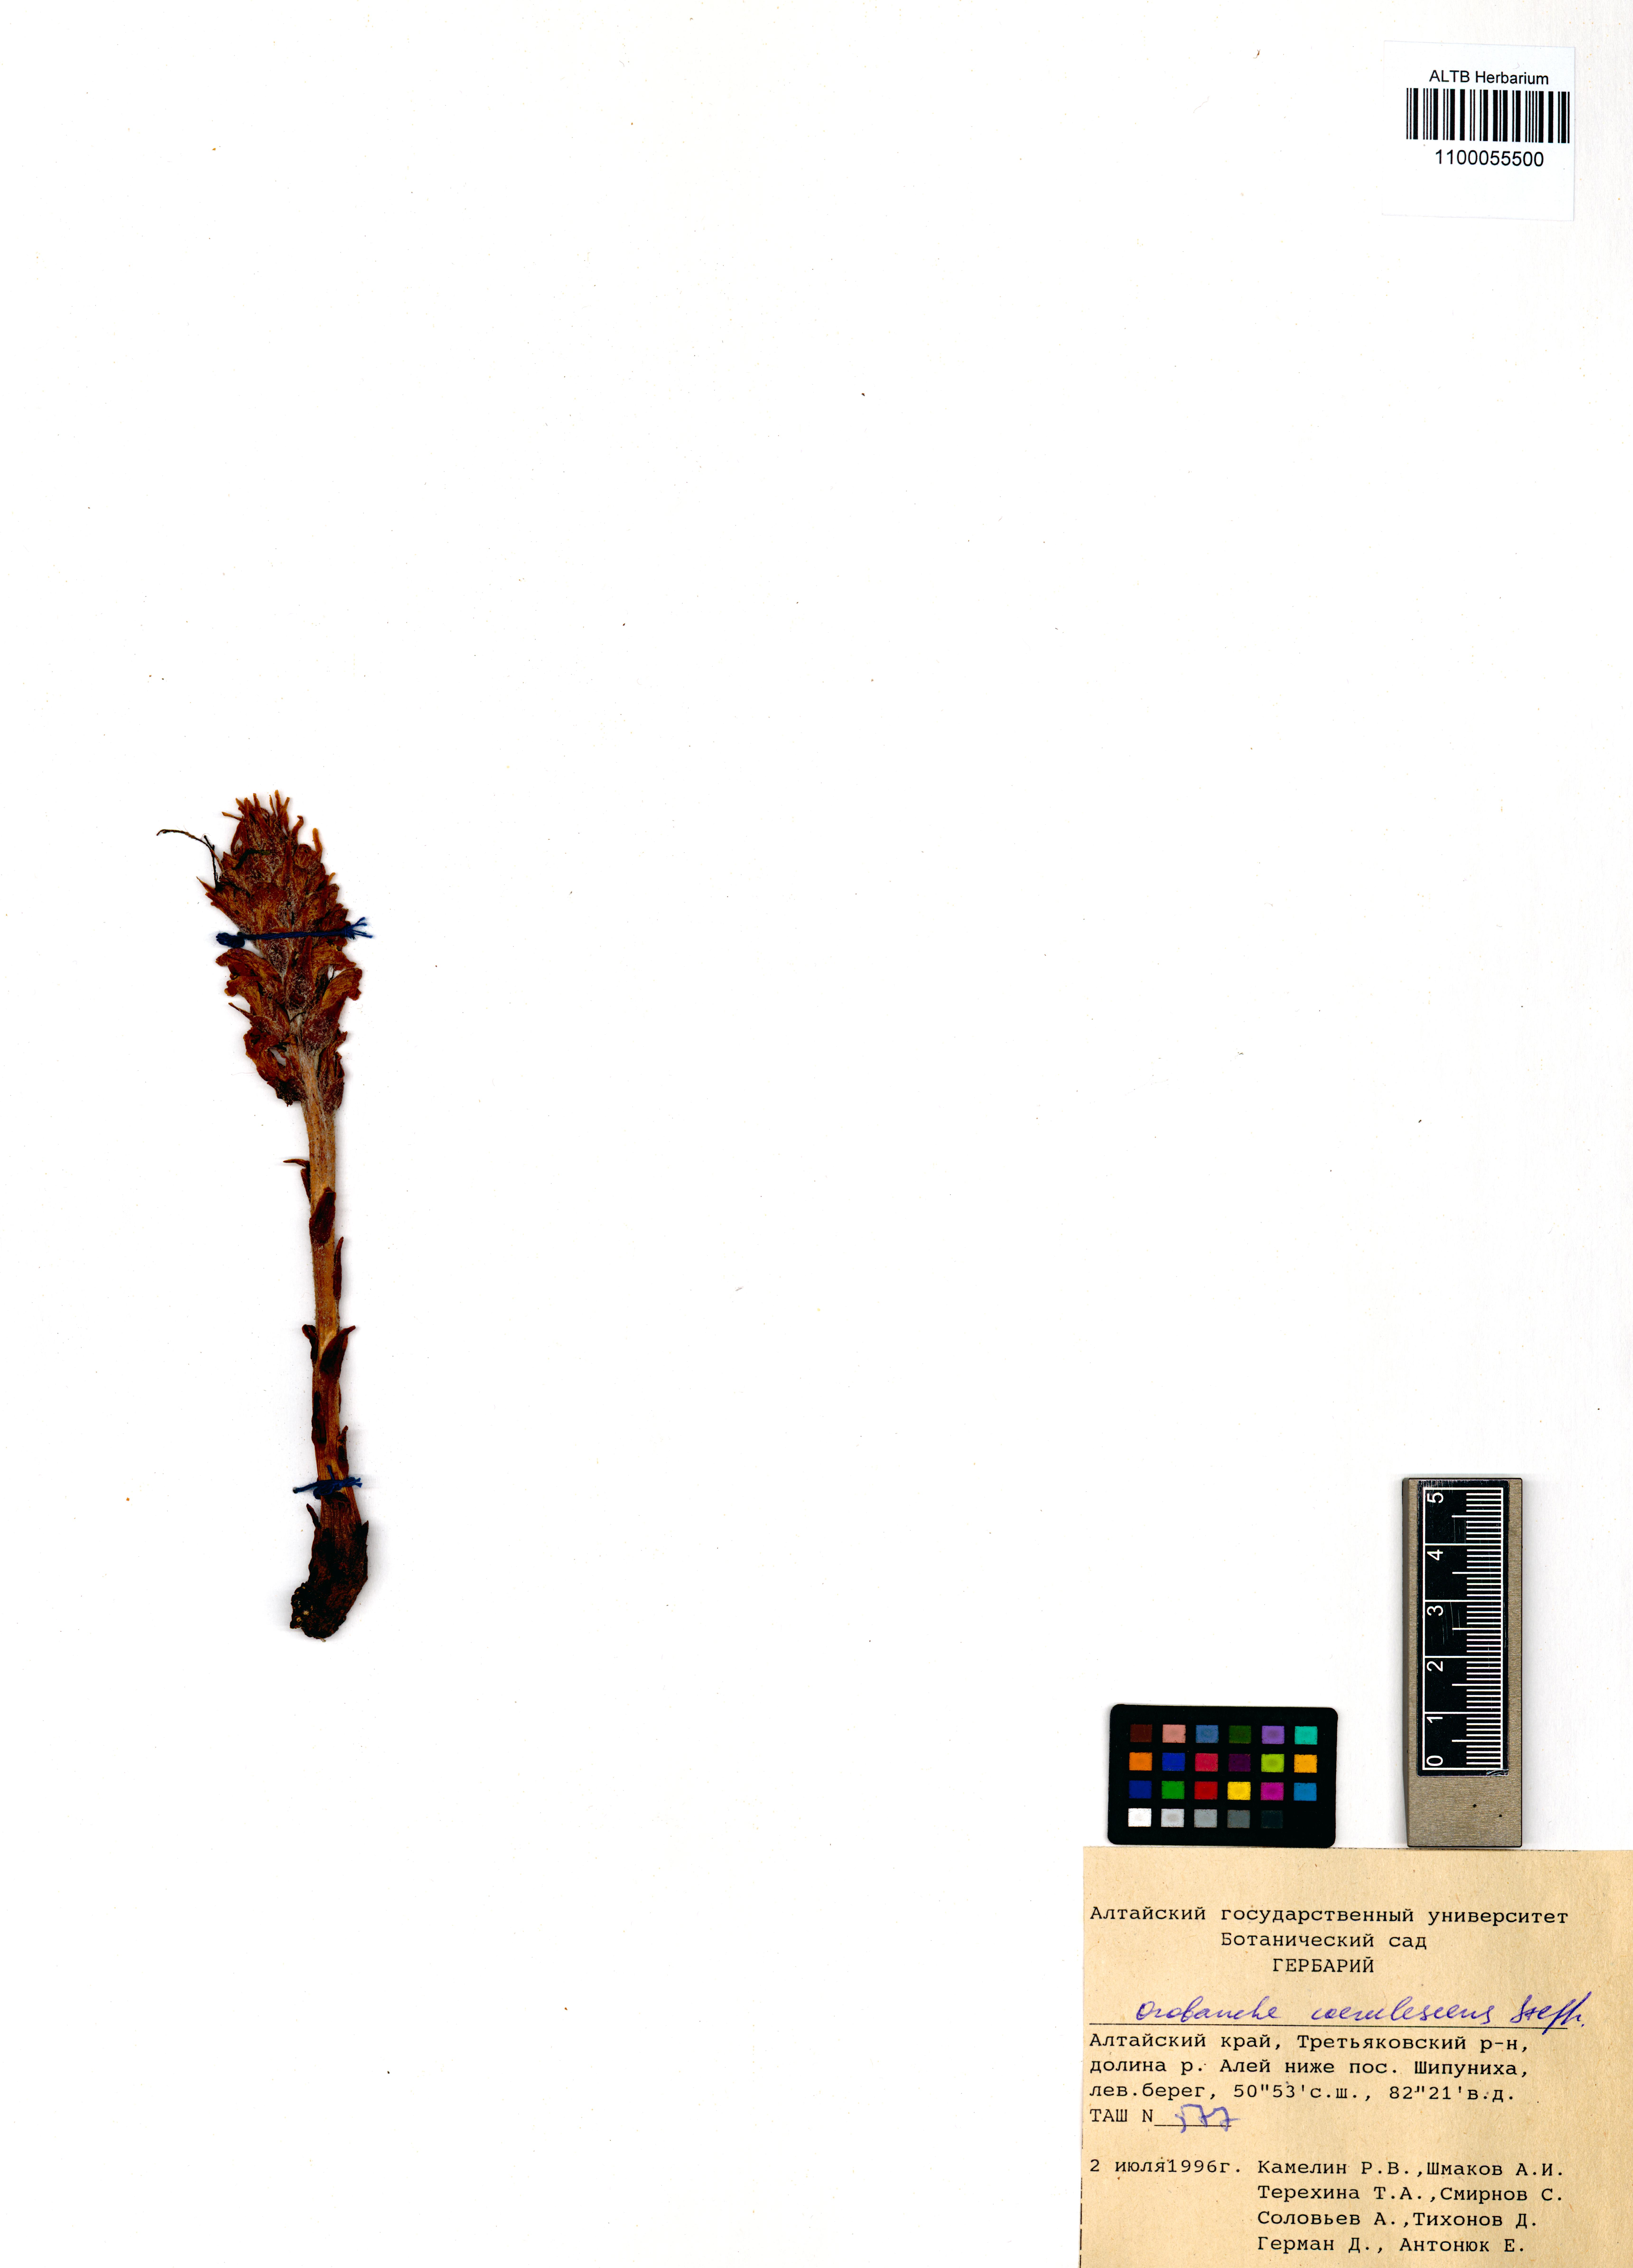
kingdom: Plantae
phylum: Tracheophyta
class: Magnoliopsida
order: Lamiales
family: Orobanchaceae
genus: Orobanche
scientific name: Orobanche coerulescens
